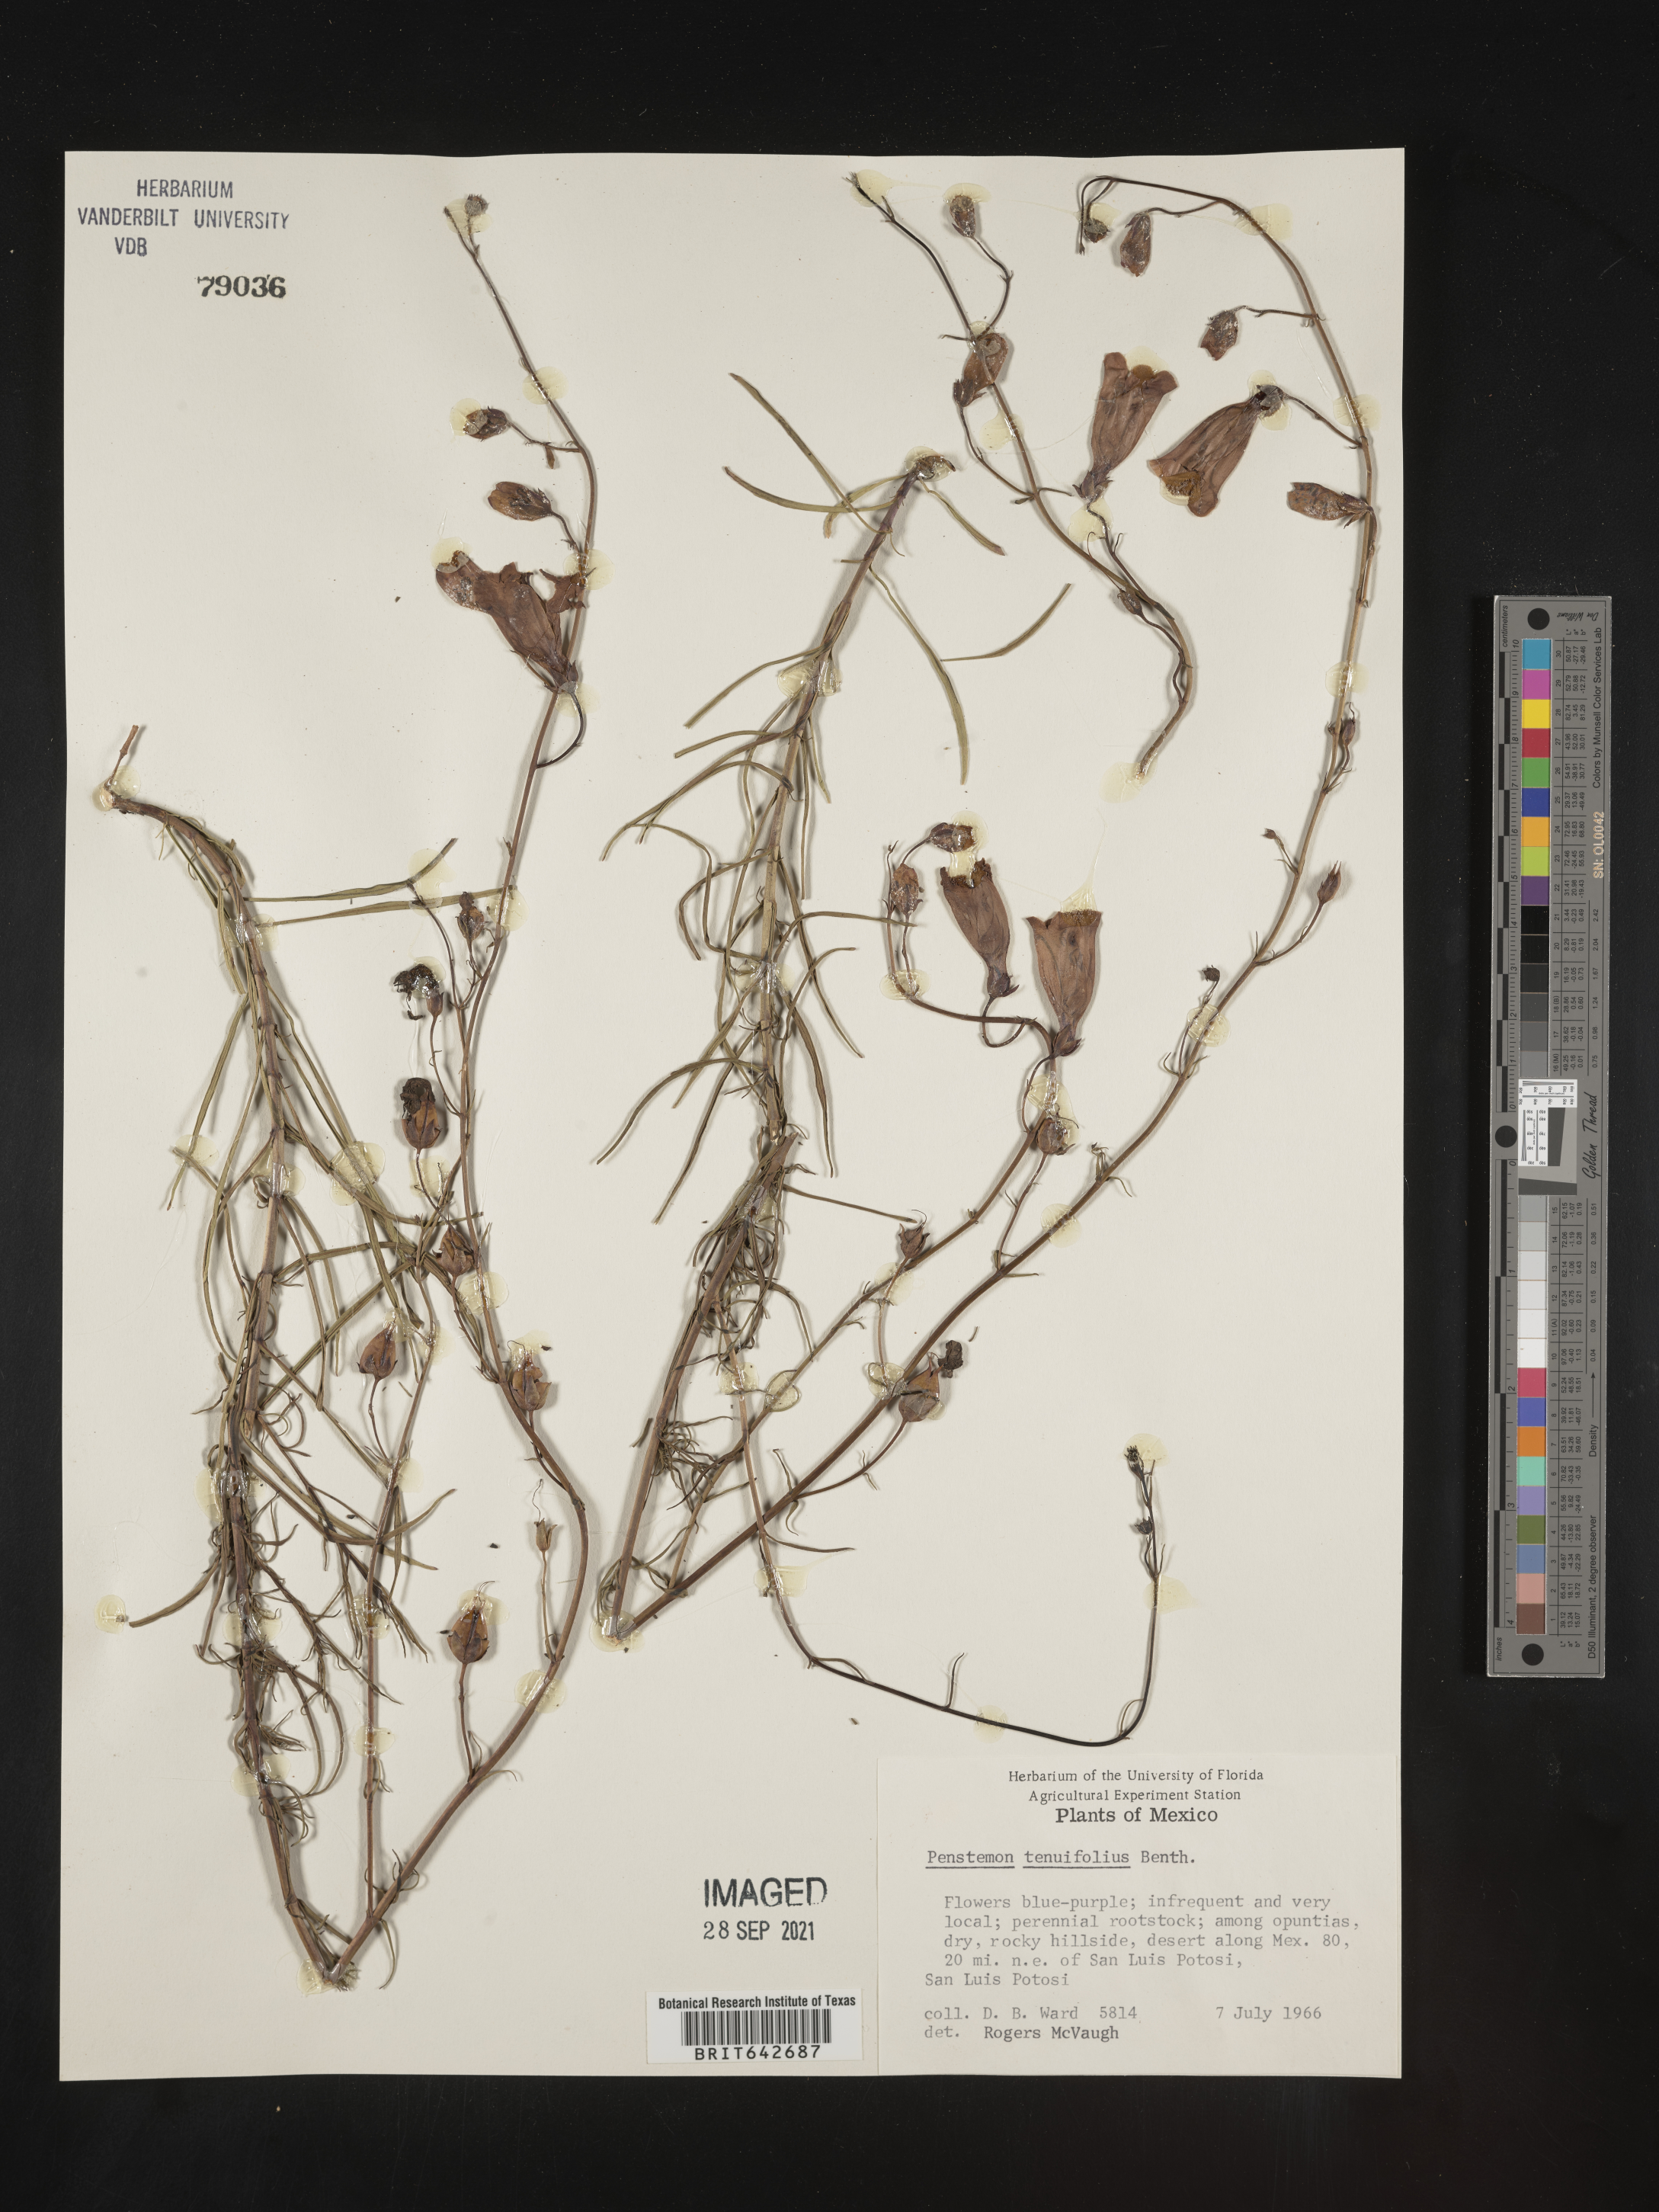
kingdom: Plantae
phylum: Tracheophyta
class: Magnoliopsida
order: Lamiales
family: Plantaginaceae
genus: Penstemon
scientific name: Penstemon
